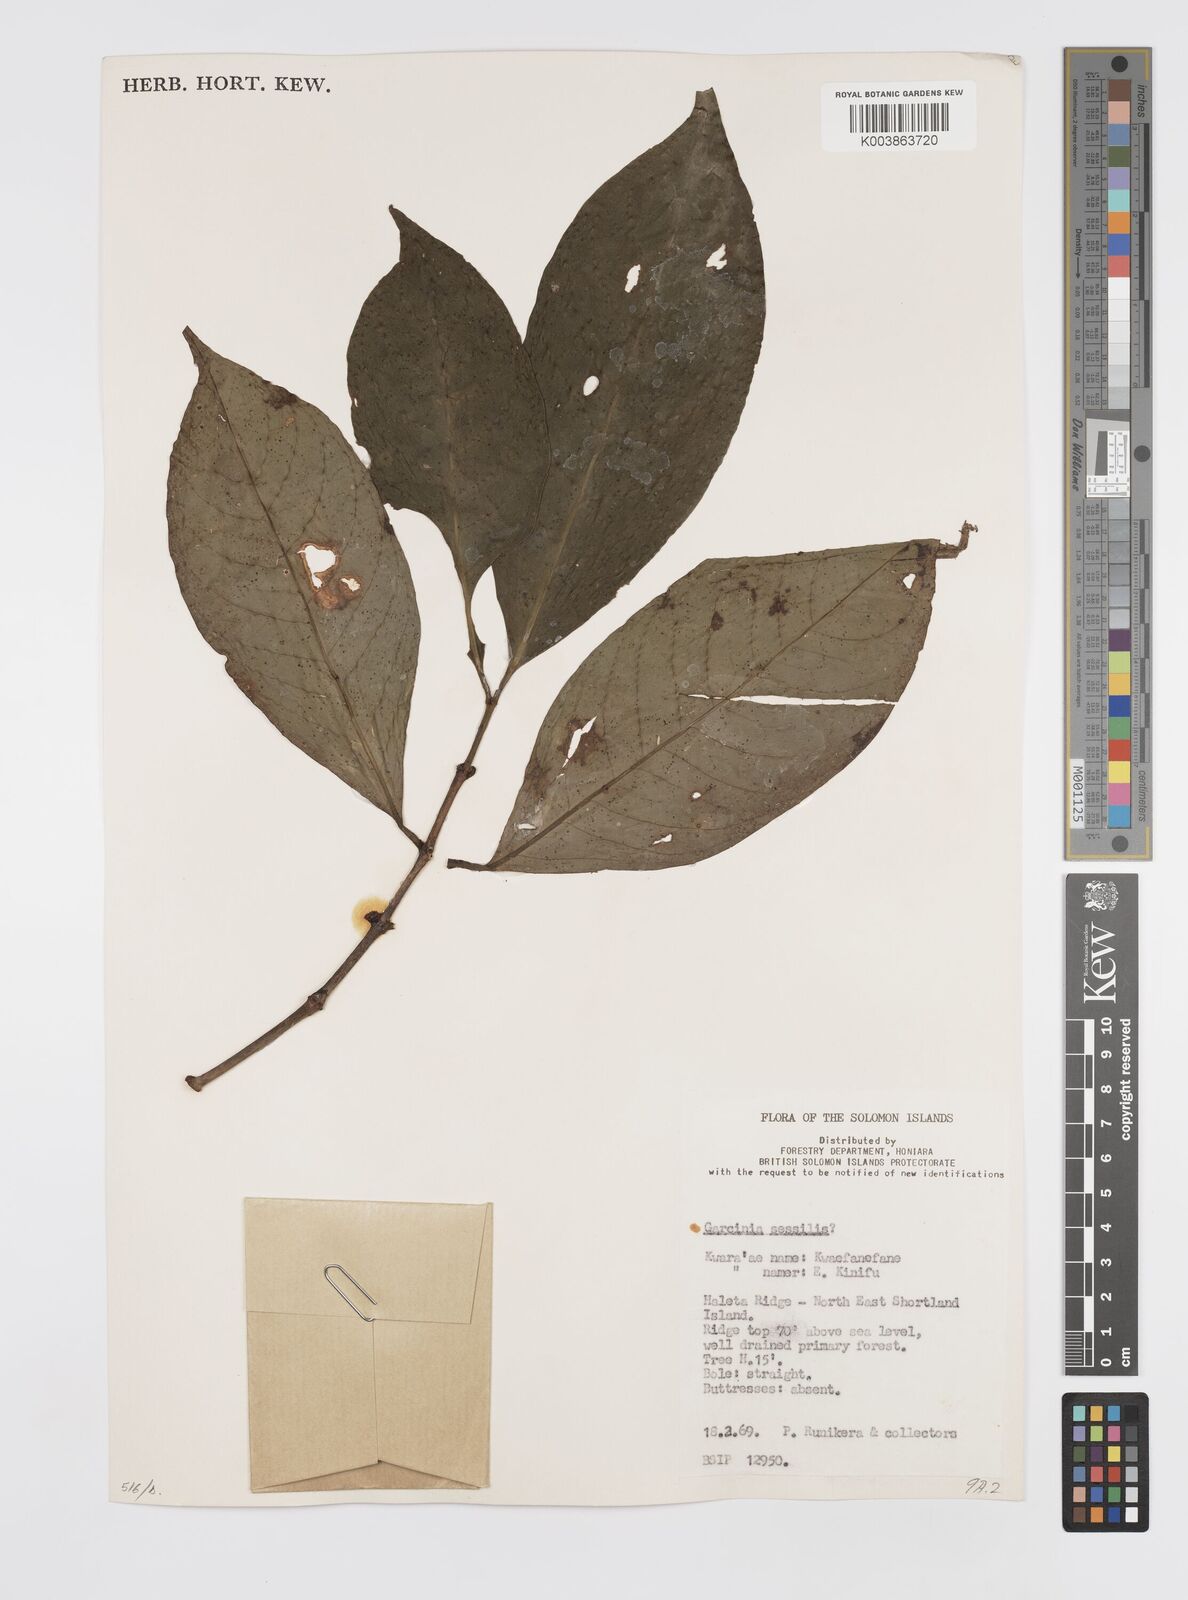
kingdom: Plantae
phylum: Tracheophyta
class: Magnoliopsida
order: Malpighiales
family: Clusiaceae
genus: Garcinia
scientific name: Garcinia sessilis
